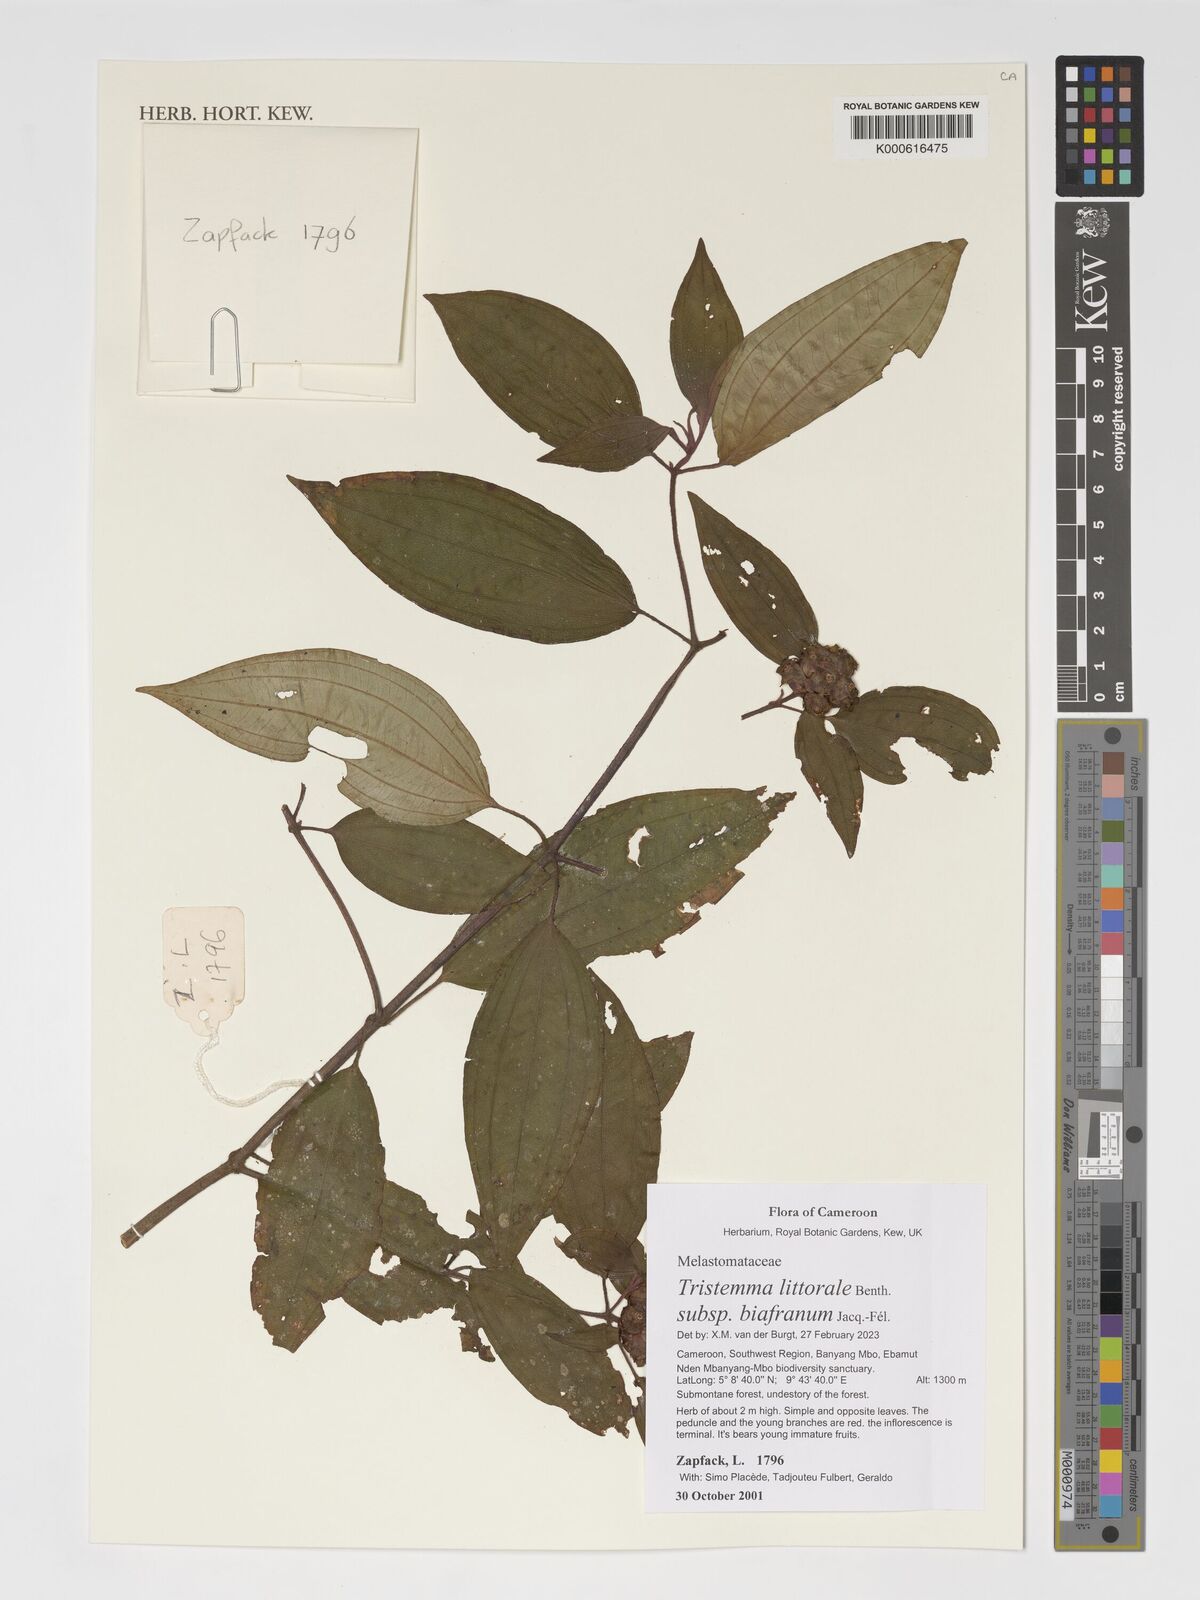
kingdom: Plantae
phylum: Tracheophyta
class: Magnoliopsida
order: Myrtales
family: Melastomataceae
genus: Tristemma
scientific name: Tristemma littorale
